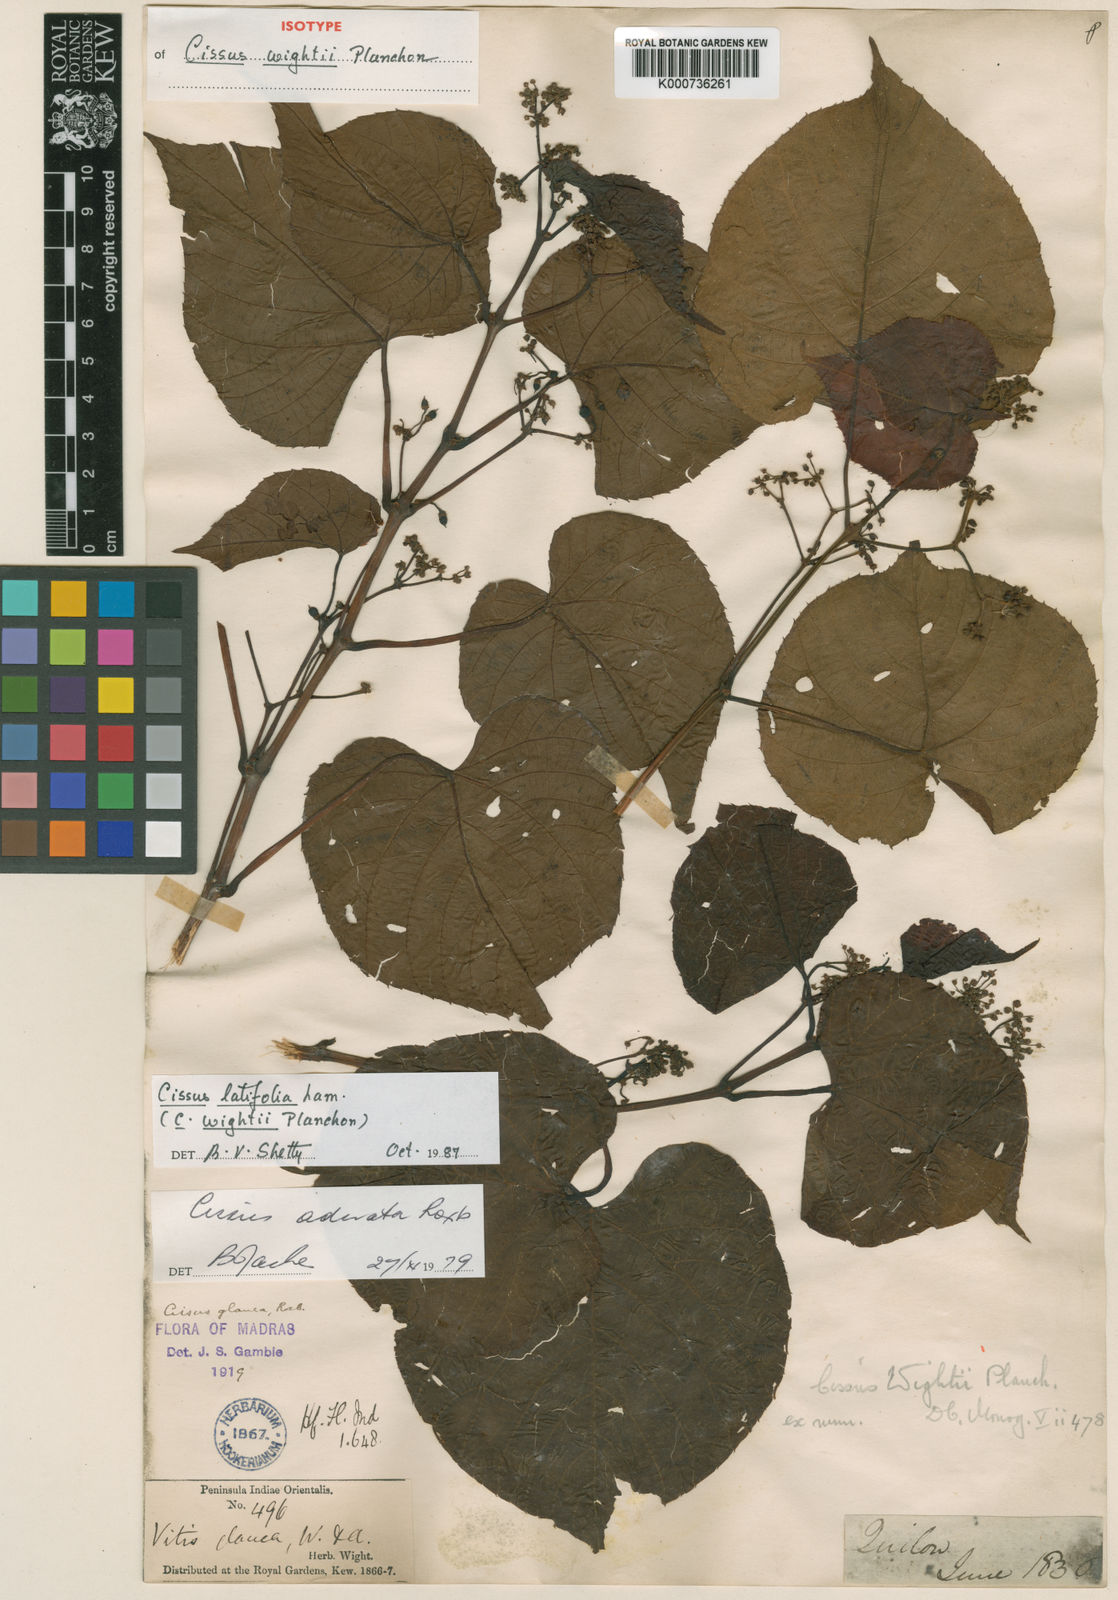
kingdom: Plantae
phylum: Tracheophyta
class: Magnoliopsida
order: Vitales
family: Vitaceae
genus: Cissus
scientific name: Cissus latifolia
